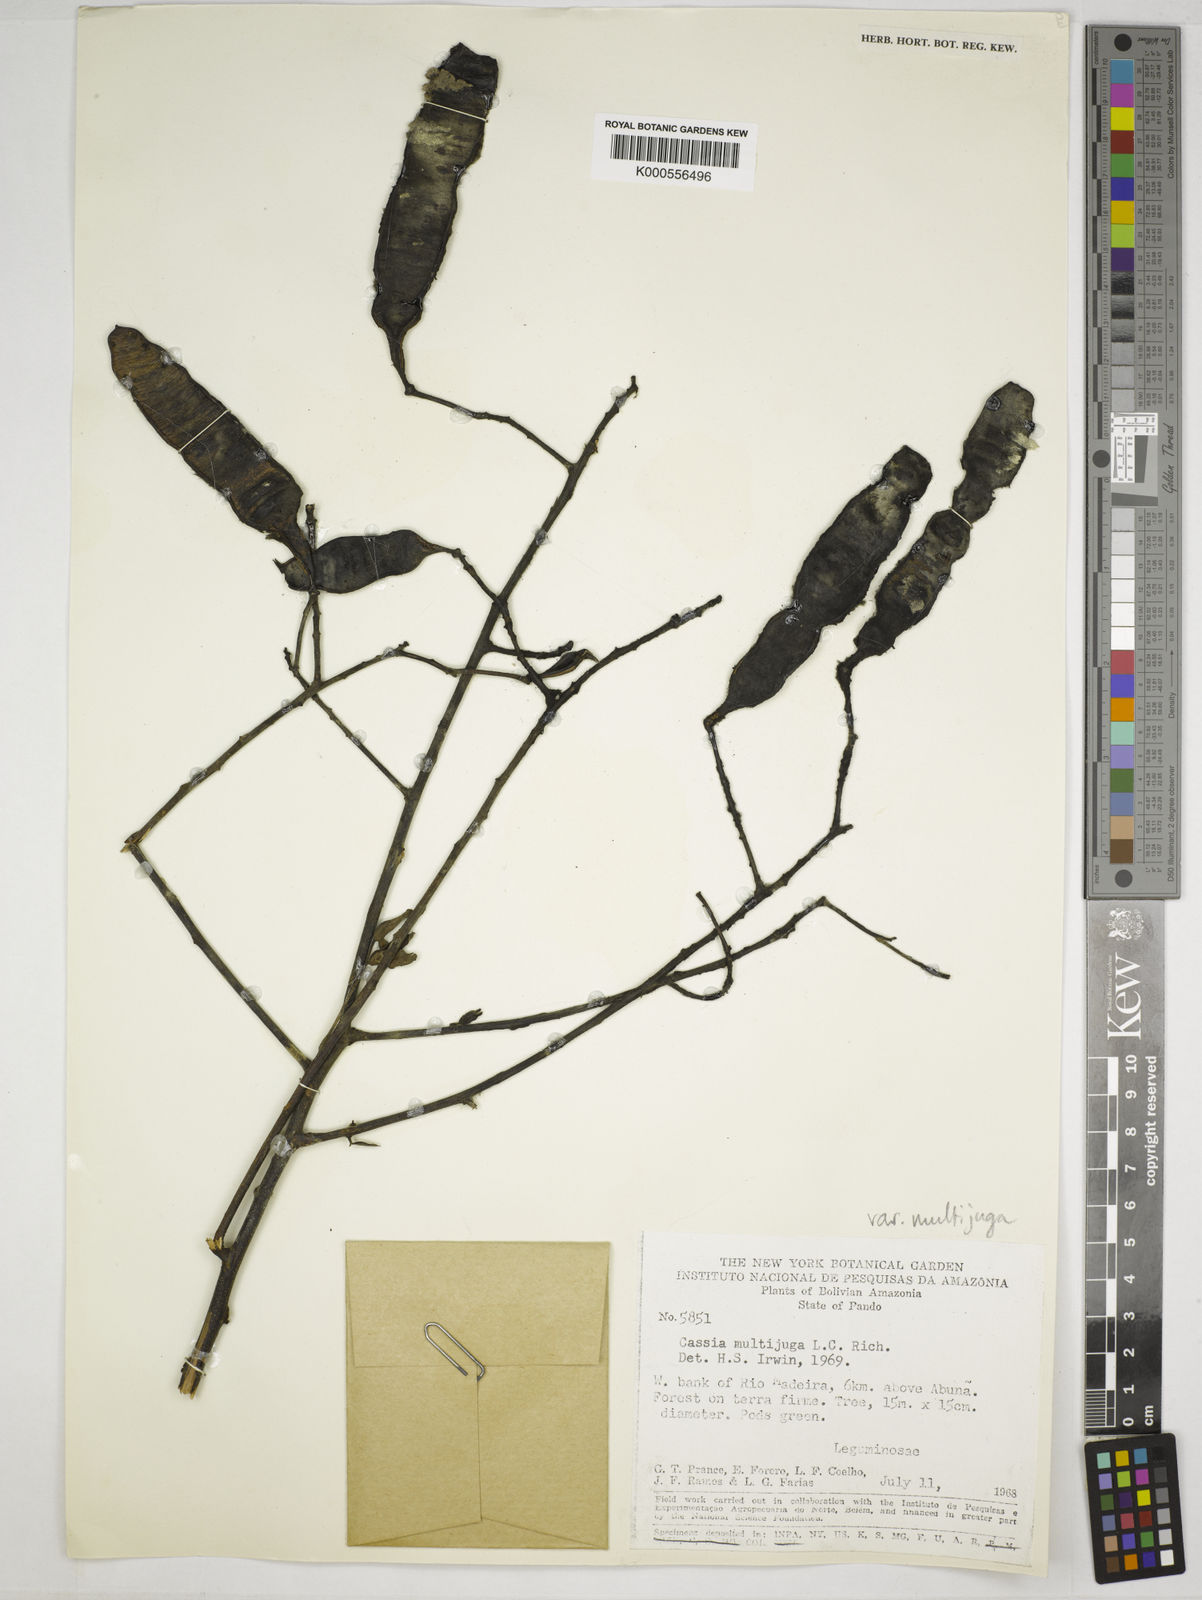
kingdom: Plantae
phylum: Tracheophyta
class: Magnoliopsida
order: Fabales
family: Fabaceae
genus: Senna
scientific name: Senna multijuga
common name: False sicklepod
